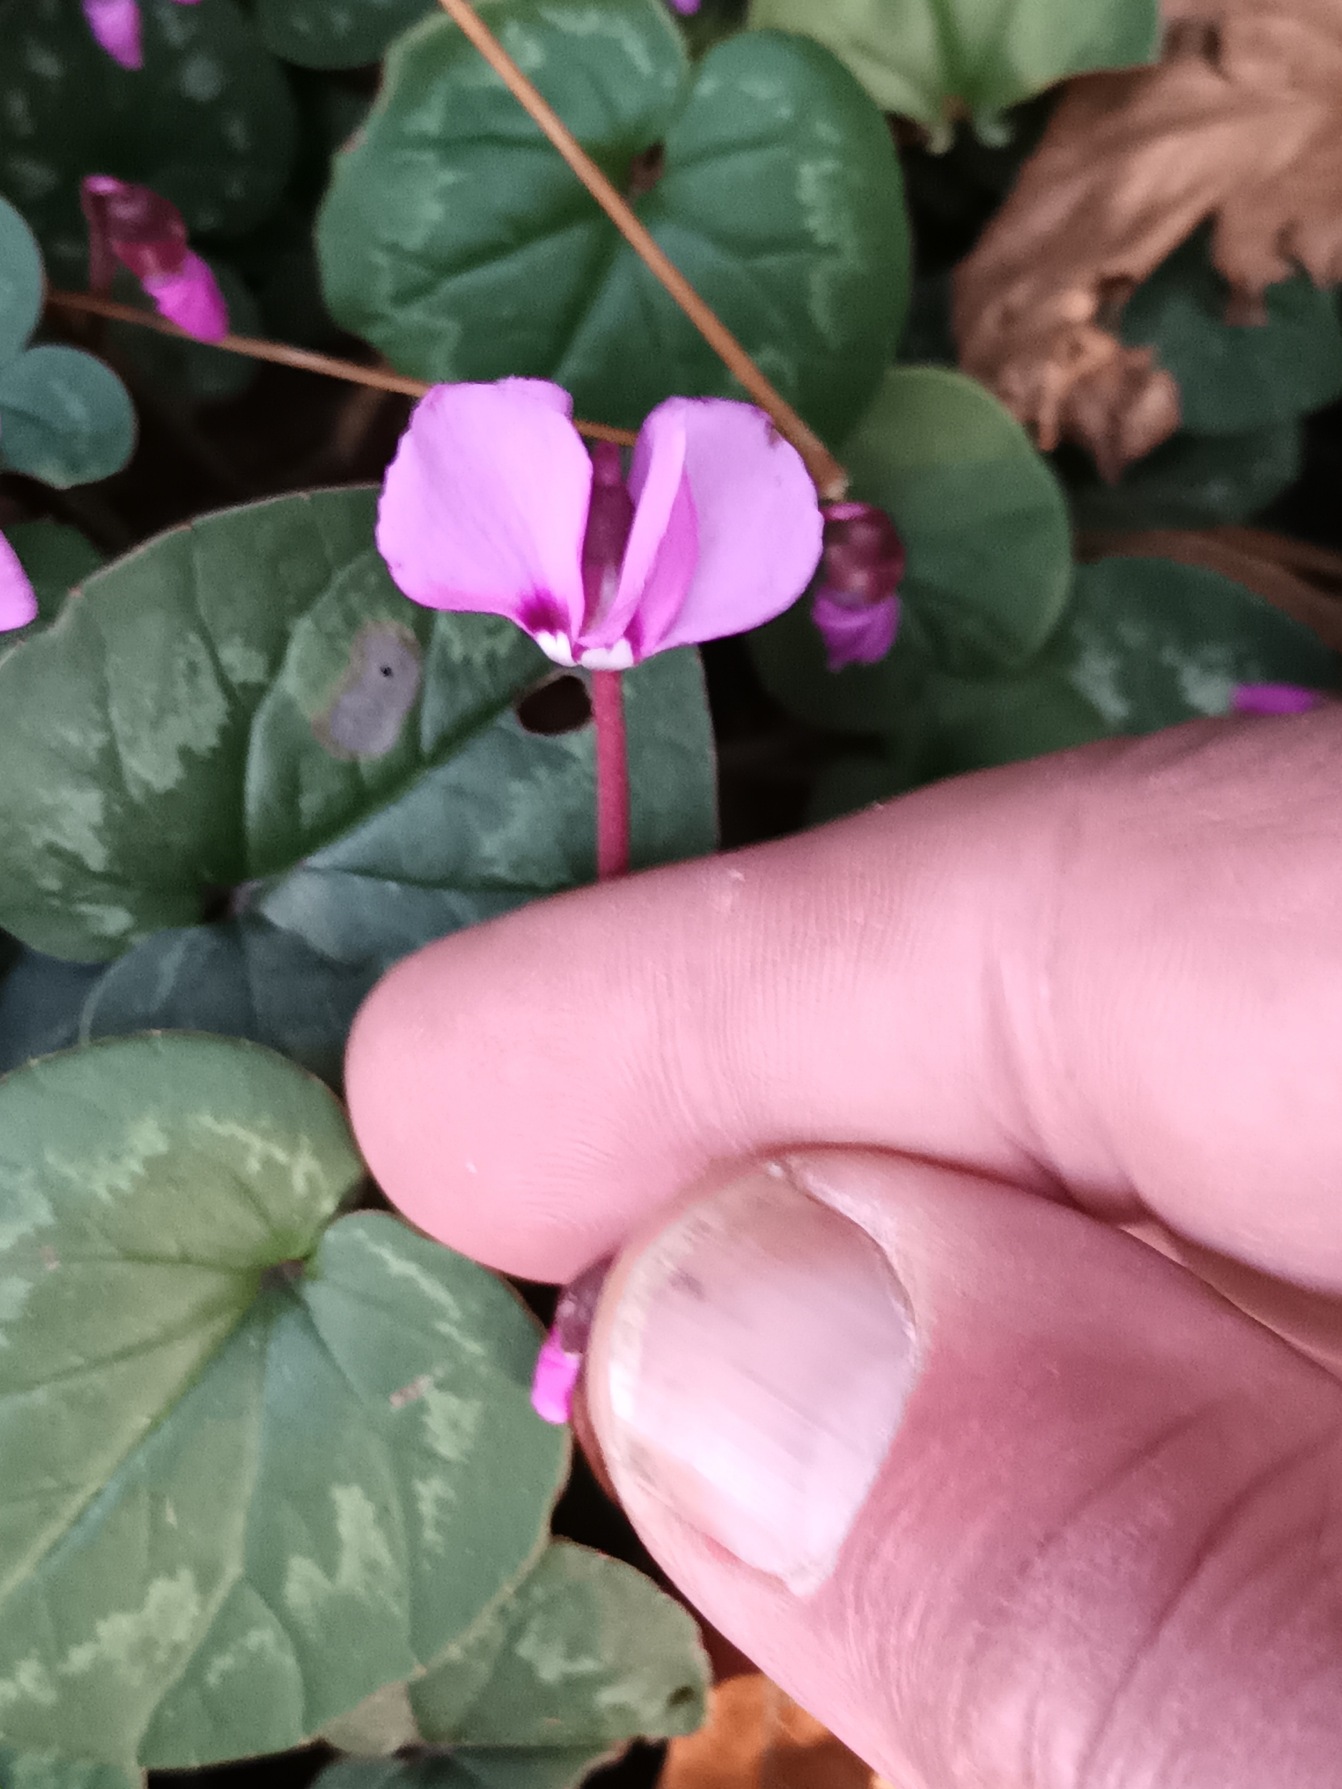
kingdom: Plantae
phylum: Tracheophyta
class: Magnoliopsida
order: Ericales
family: Primulaceae
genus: Cyclamen
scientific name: Cyclamen
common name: Cyclamen
